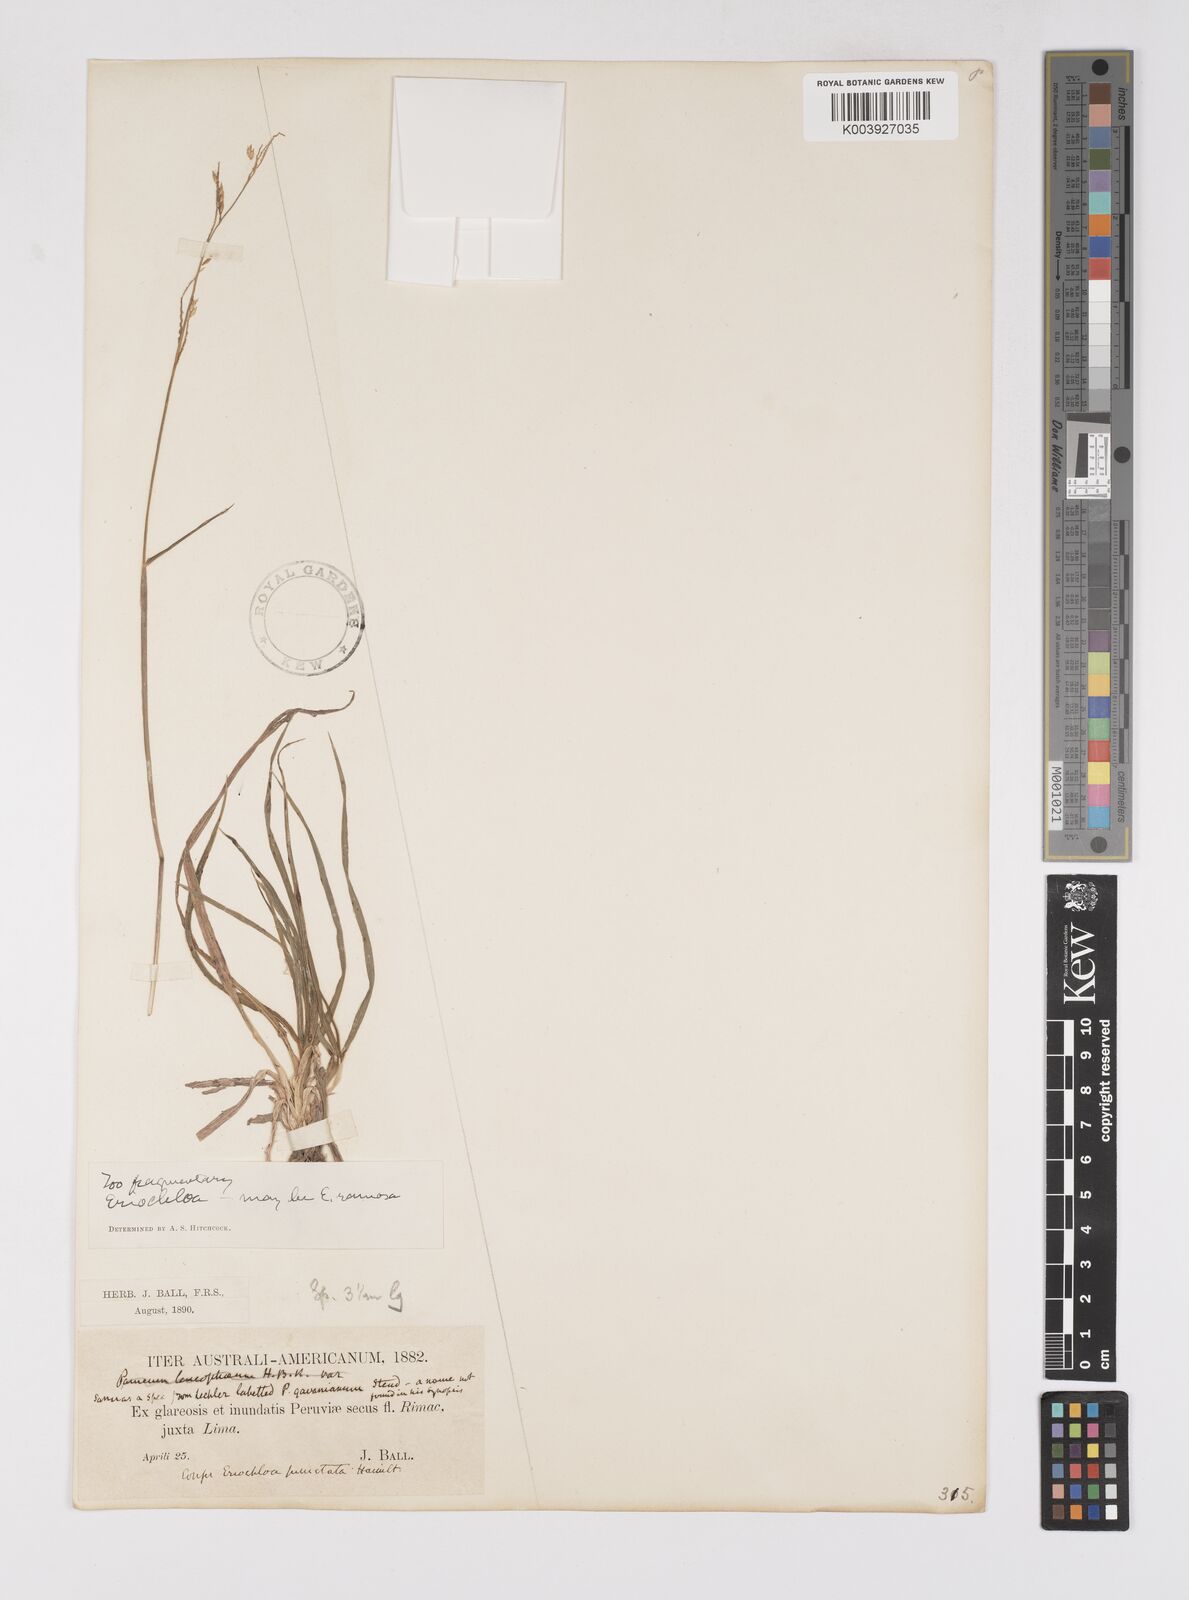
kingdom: Plantae
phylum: Tracheophyta
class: Liliopsida
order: Poales
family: Poaceae
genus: Eriochloa
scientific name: Eriochloa procera
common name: Spring grass
